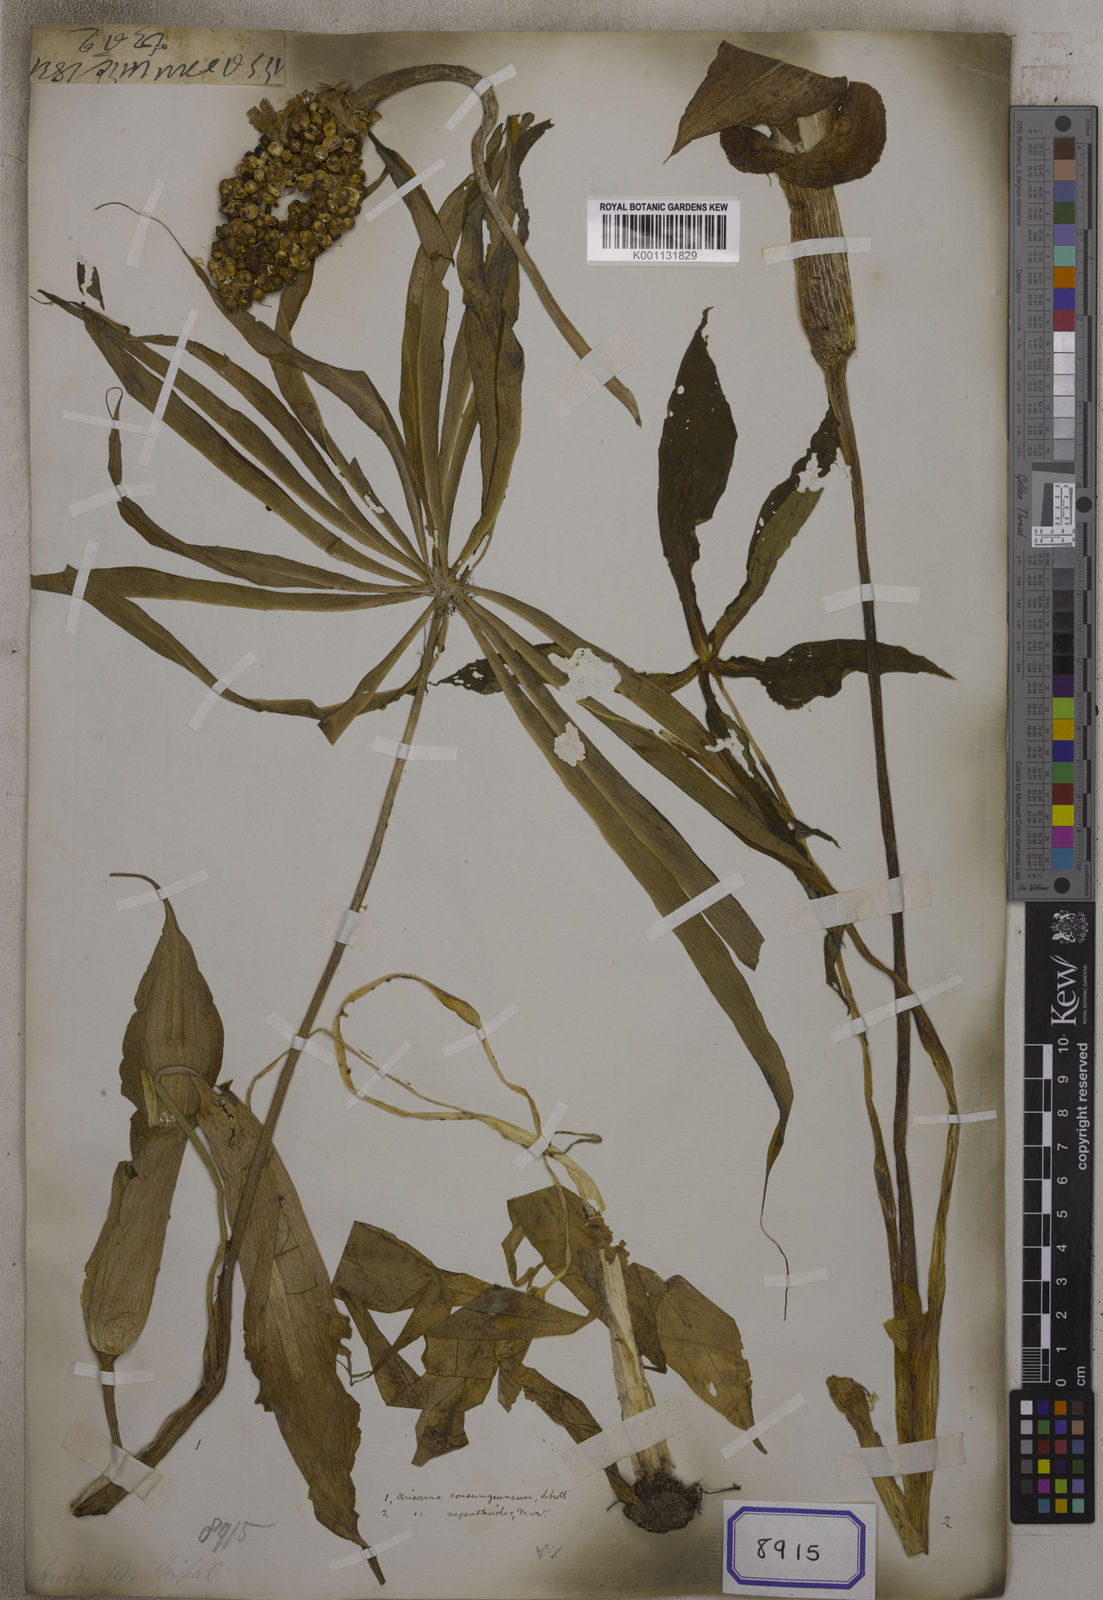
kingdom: Plantae
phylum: Tracheophyta
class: Liliopsida
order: Alismatales
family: Araceae
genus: Arisaema
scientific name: Arisaema
